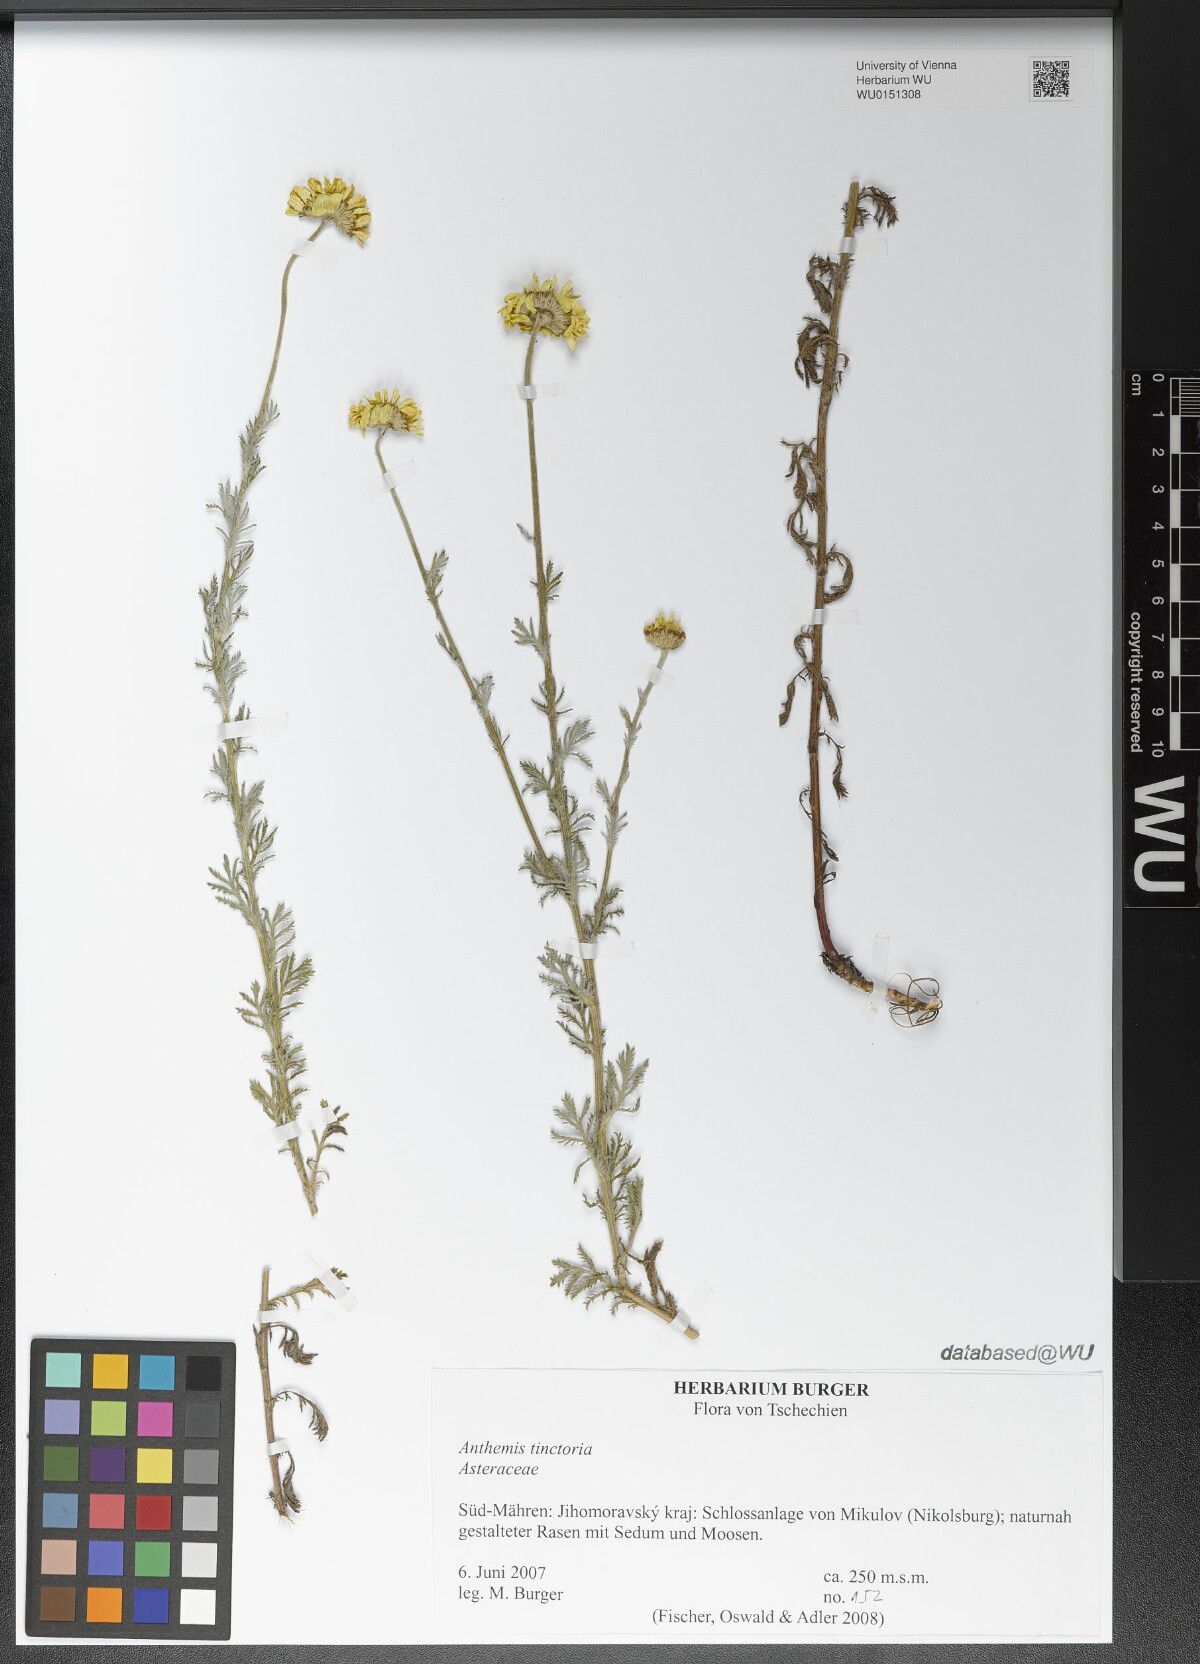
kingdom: Plantae
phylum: Tracheophyta
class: Magnoliopsida
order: Asterales
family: Asteraceae
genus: Cota
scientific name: Cota tinctoria
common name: Golden chamomile
